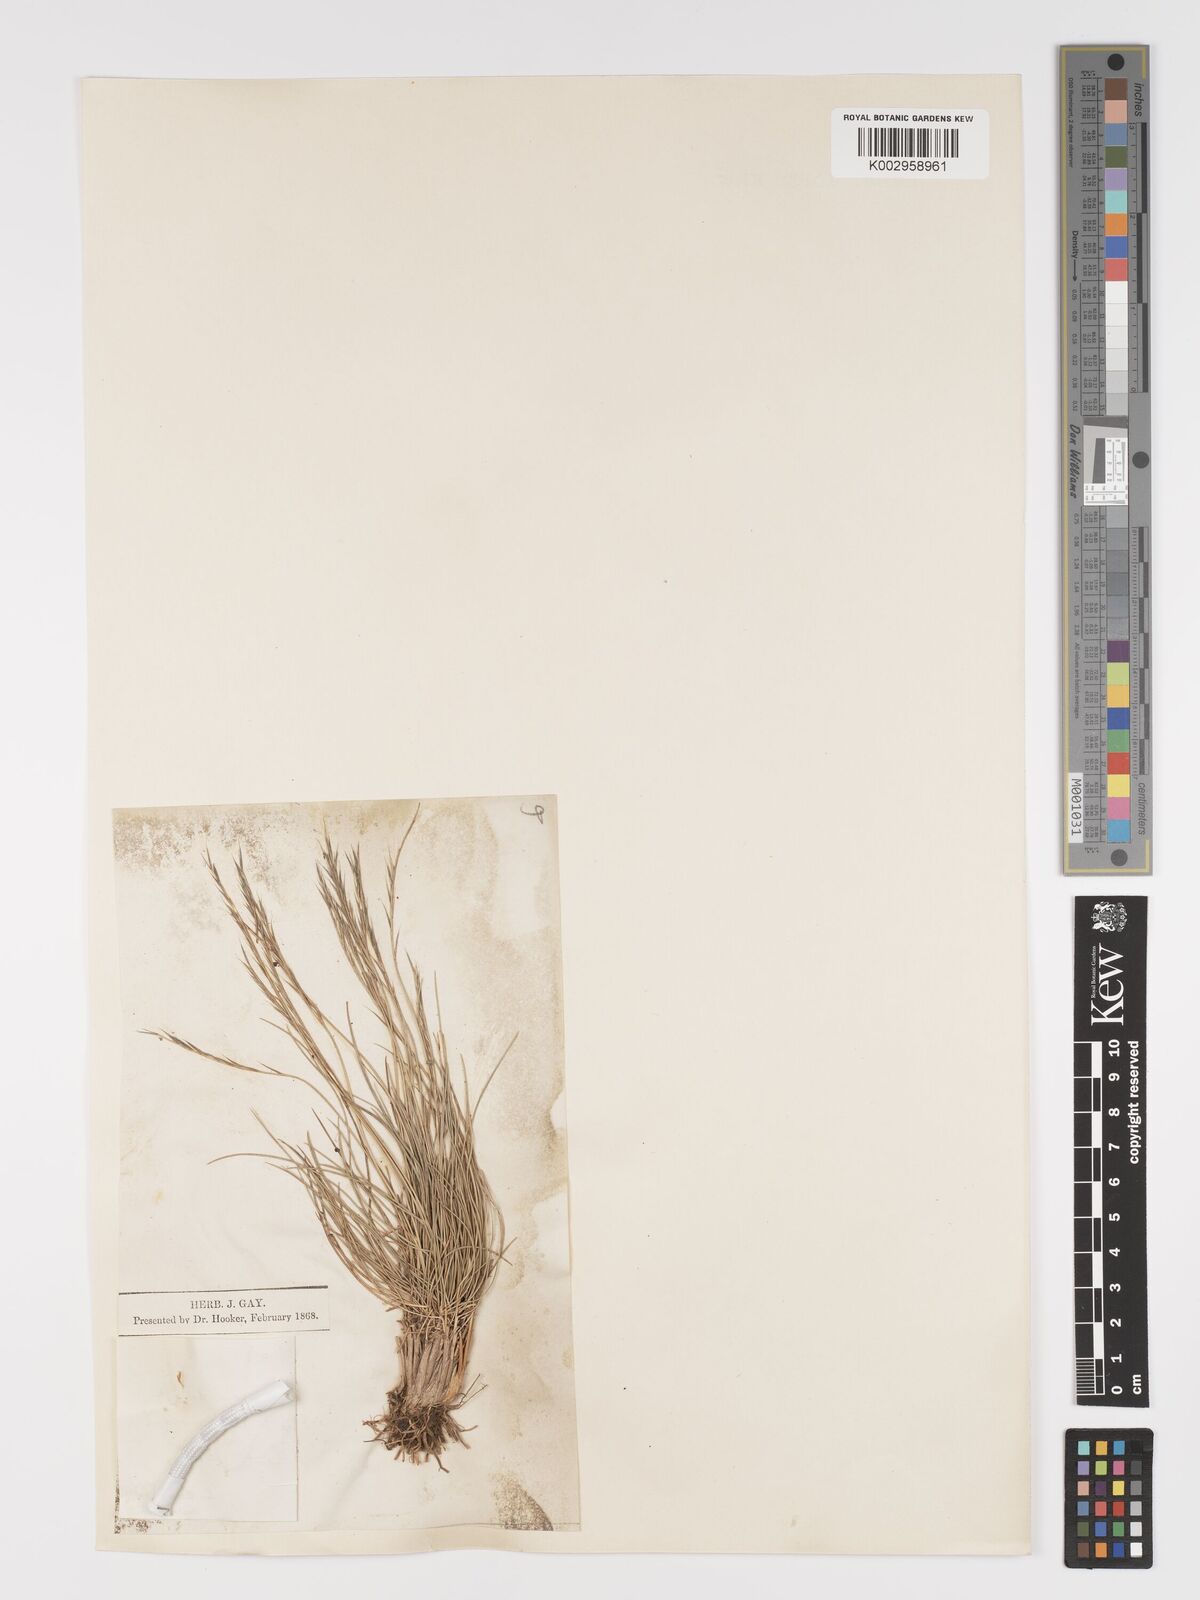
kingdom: Plantae
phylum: Tracheophyta
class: Liliopsida
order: Poales
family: Poaceae
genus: Nardus
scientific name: Nardus stricta
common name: Mat-grass
